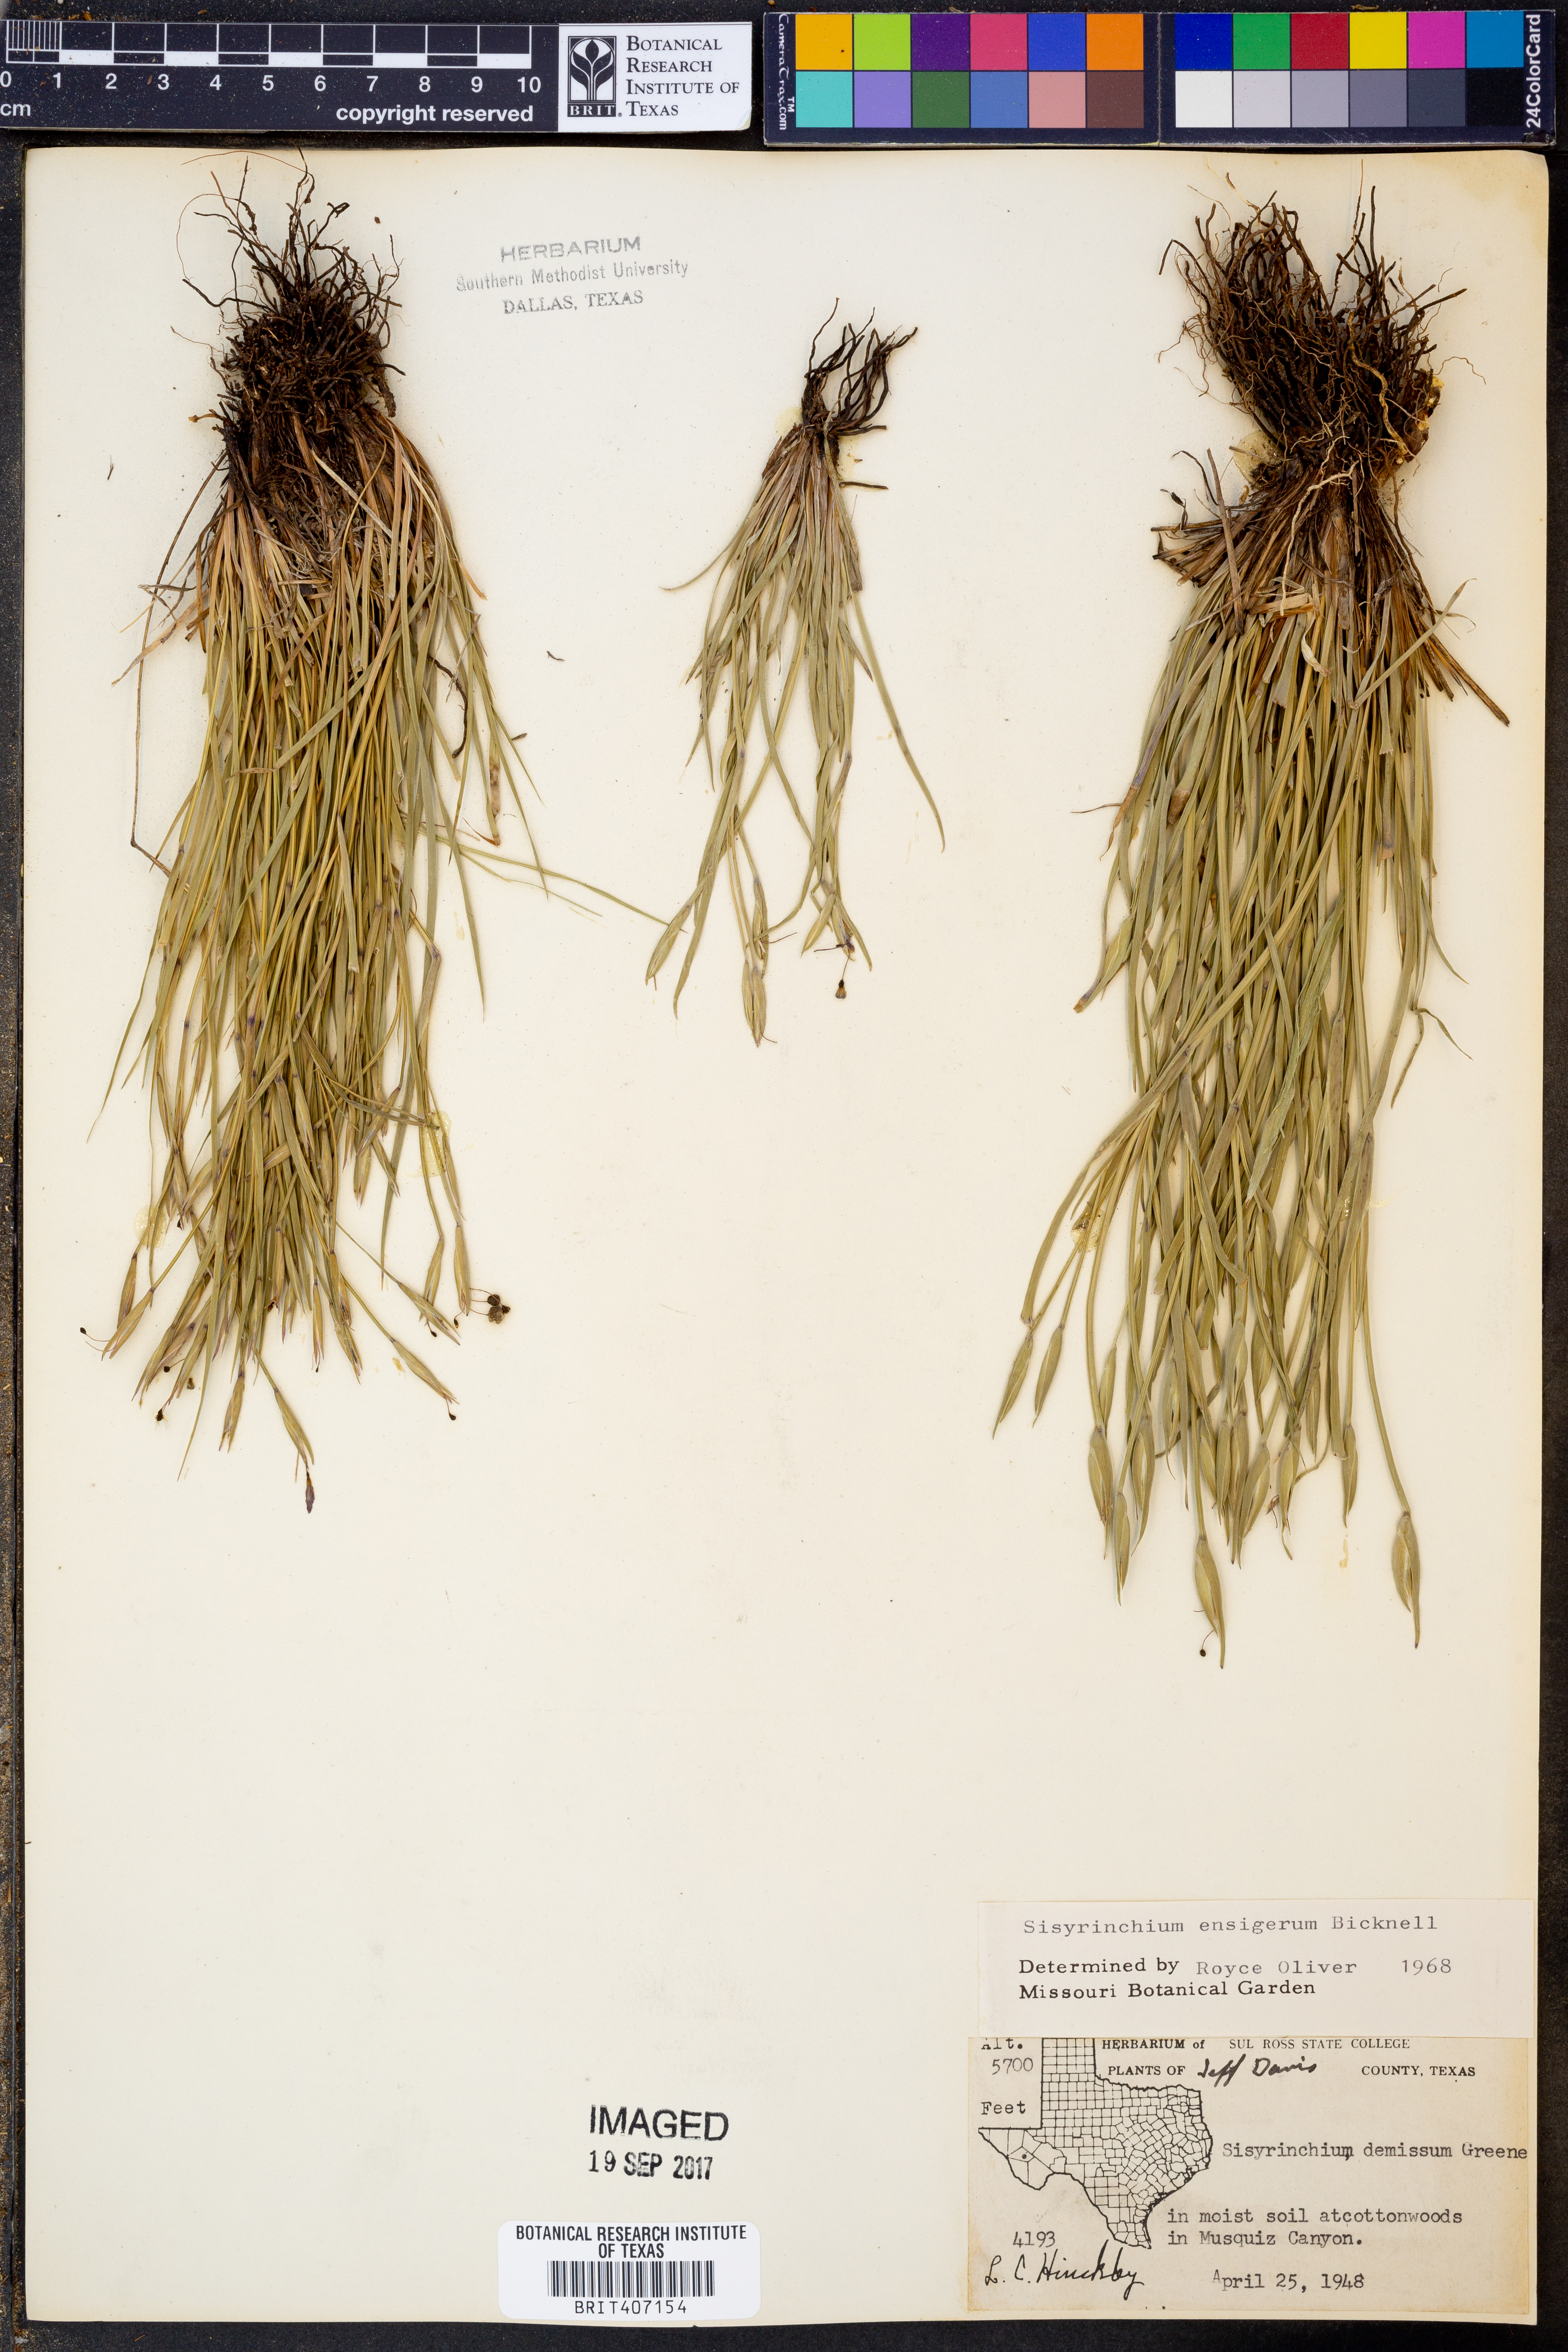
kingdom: Plantae
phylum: Tracheophyta
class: Liliopsida
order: Asparagales
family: Iridaceae
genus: Sisyrinchium
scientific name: Sisyrinchium ensigerum
